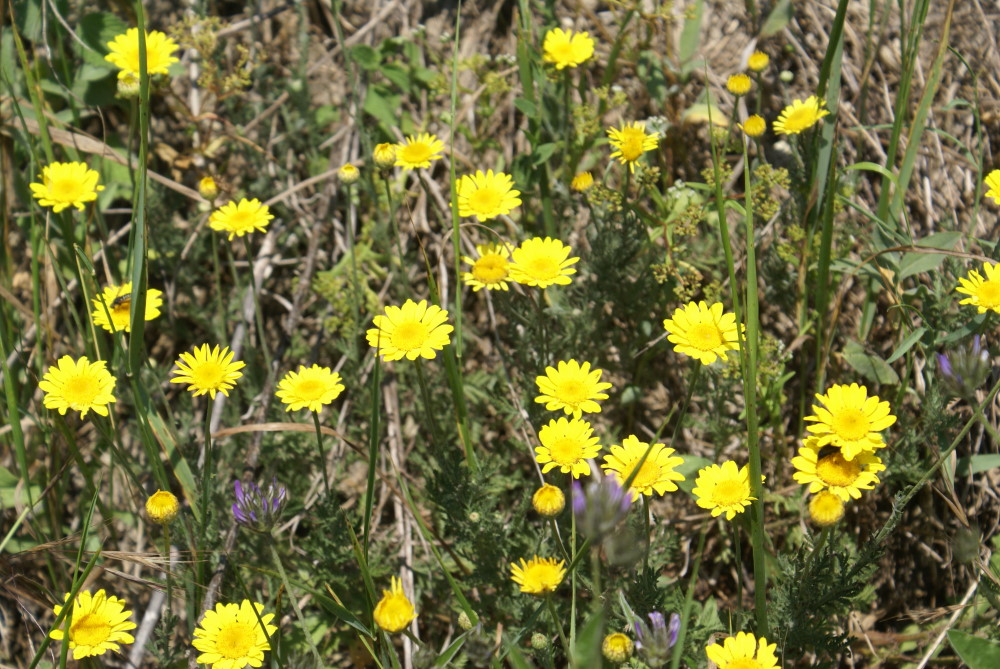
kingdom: Plantae
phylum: Tracheophyta
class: Magnoliopsida
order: Asterales
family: Asteraceae
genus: Cota
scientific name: Cota tinctoria
